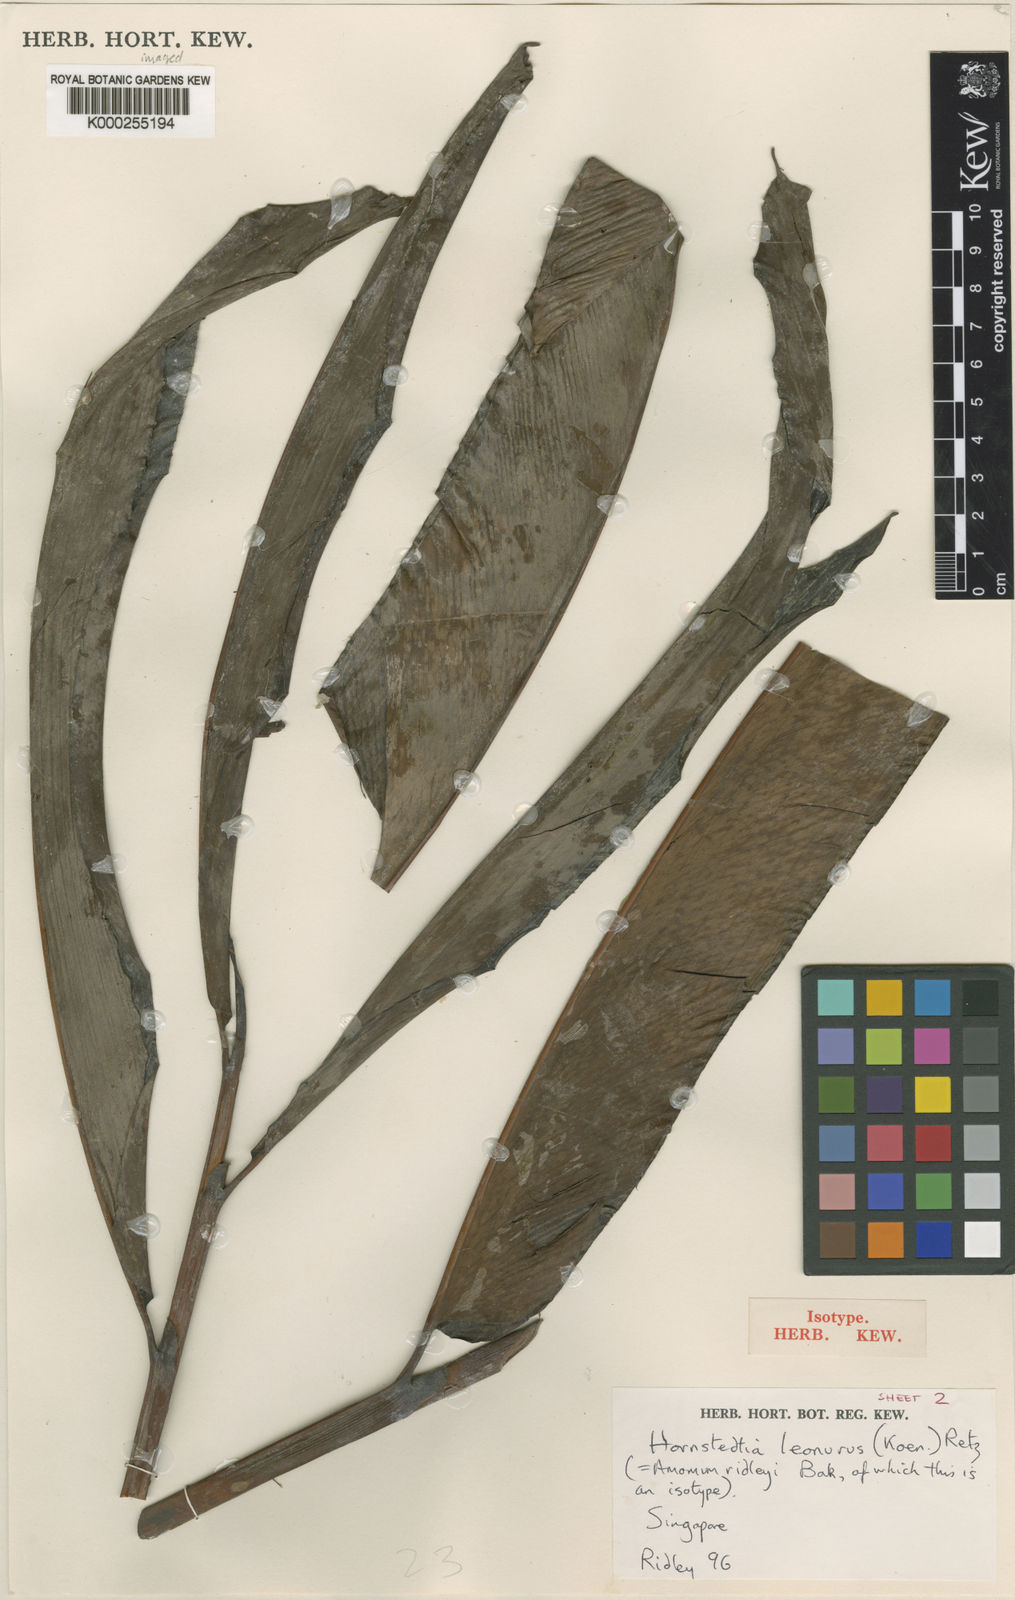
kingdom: Plantae
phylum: Tracheophyta
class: Liliopsida
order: Zingiberales
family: Zingiberaceae
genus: Hornstedtia
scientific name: Hornstedtia leonurus
